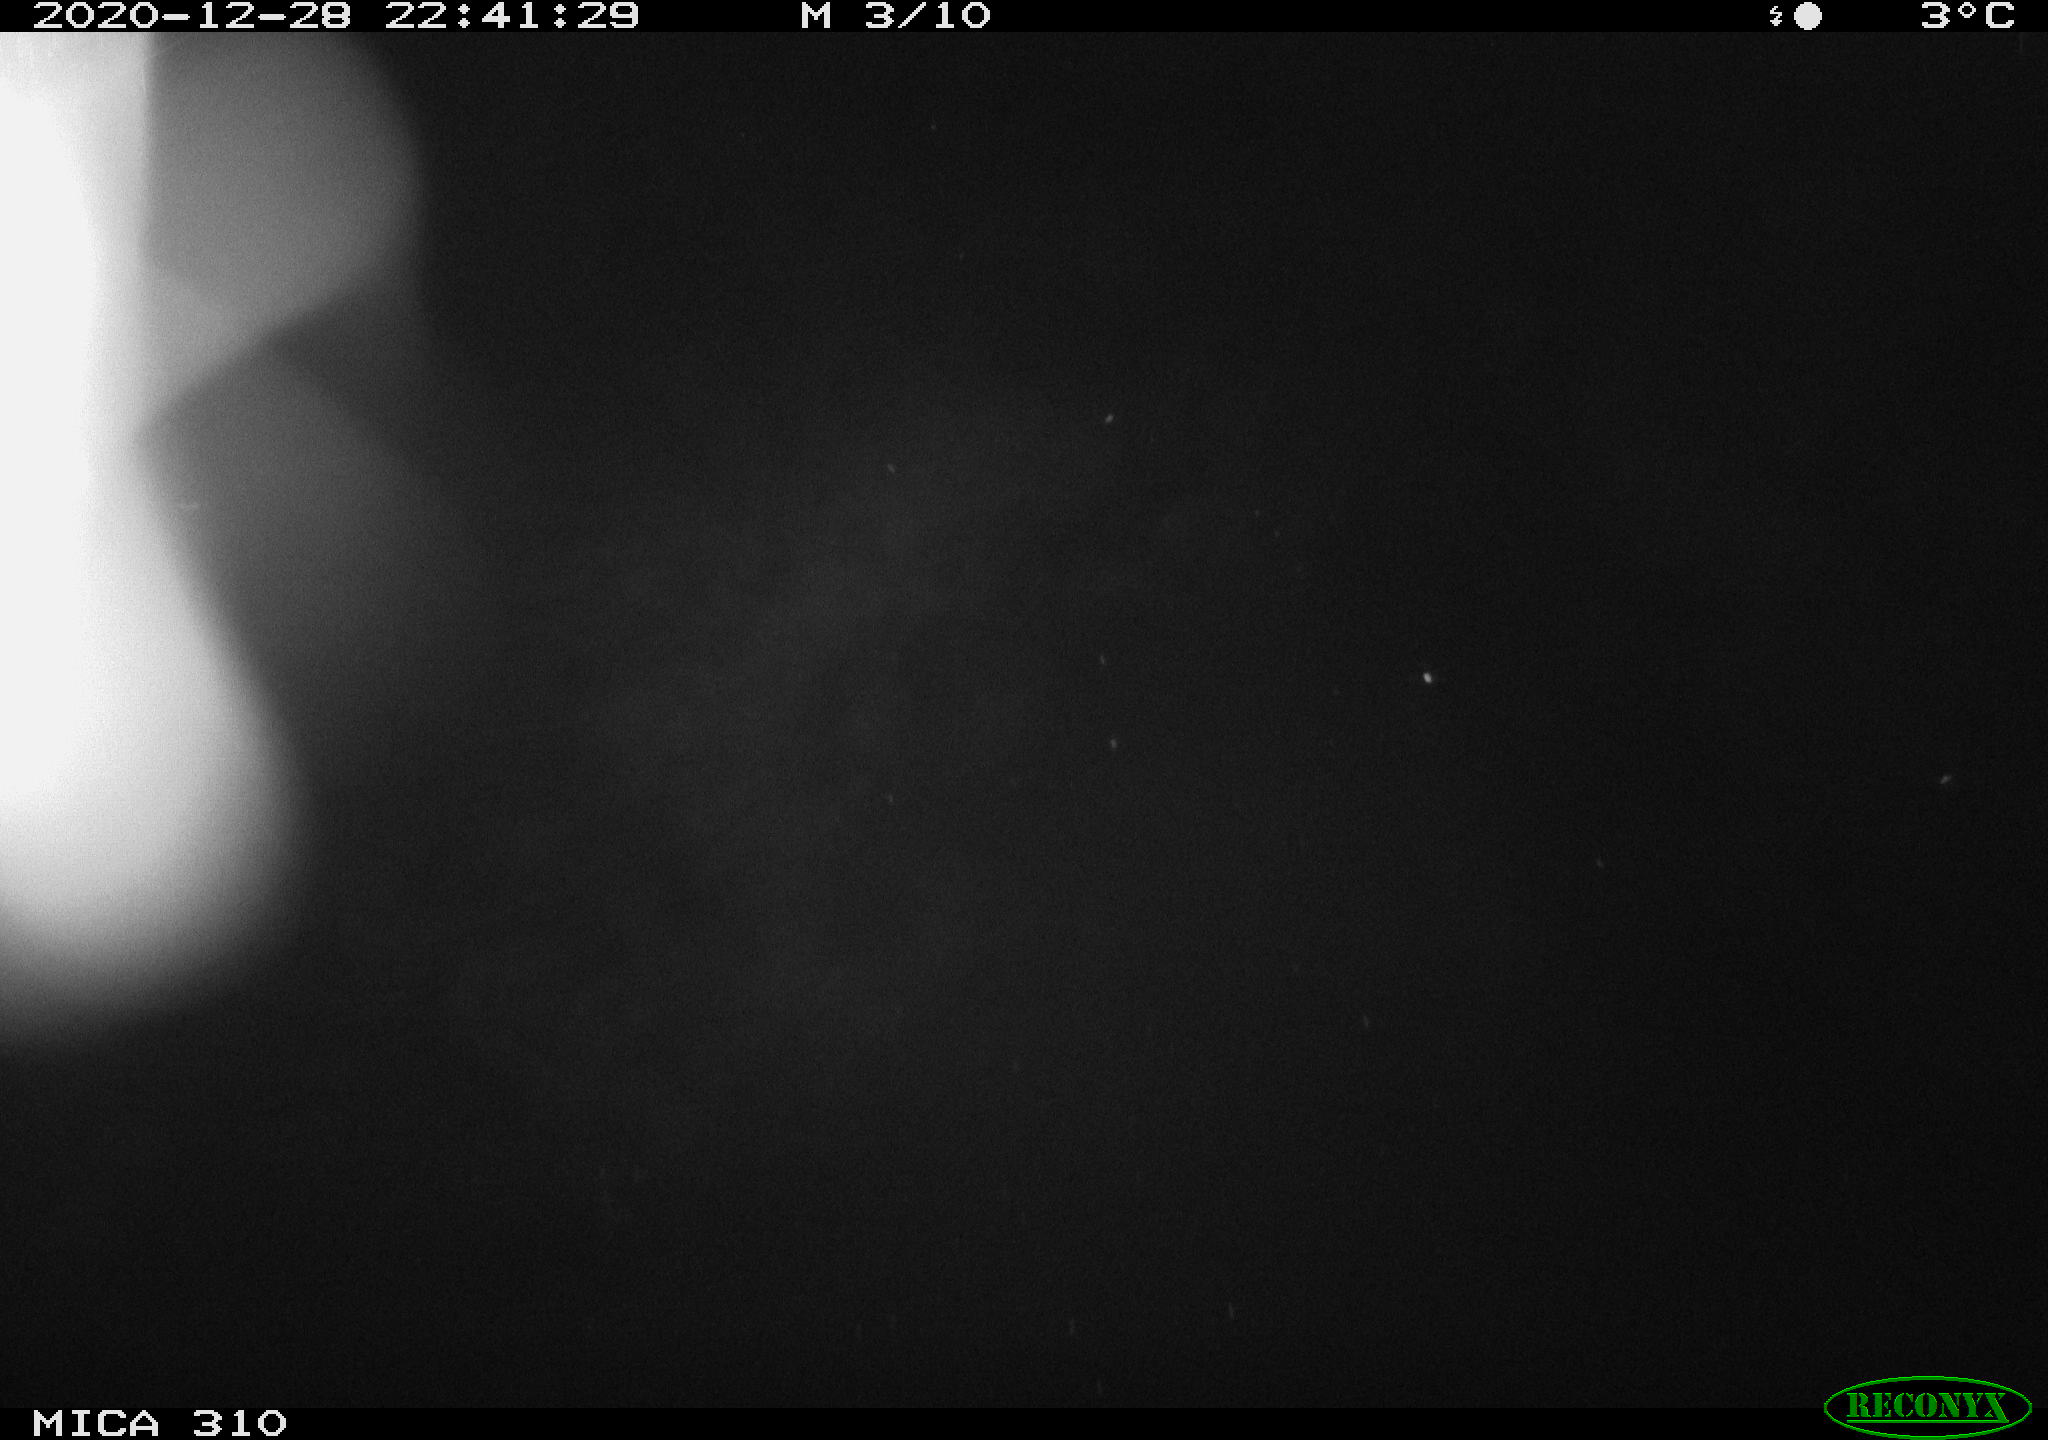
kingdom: Animalia
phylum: Chordata
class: Mammalia
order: Rodentia
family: Muridae
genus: Rattus
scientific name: Rattus norvegicus
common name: Brown rat
